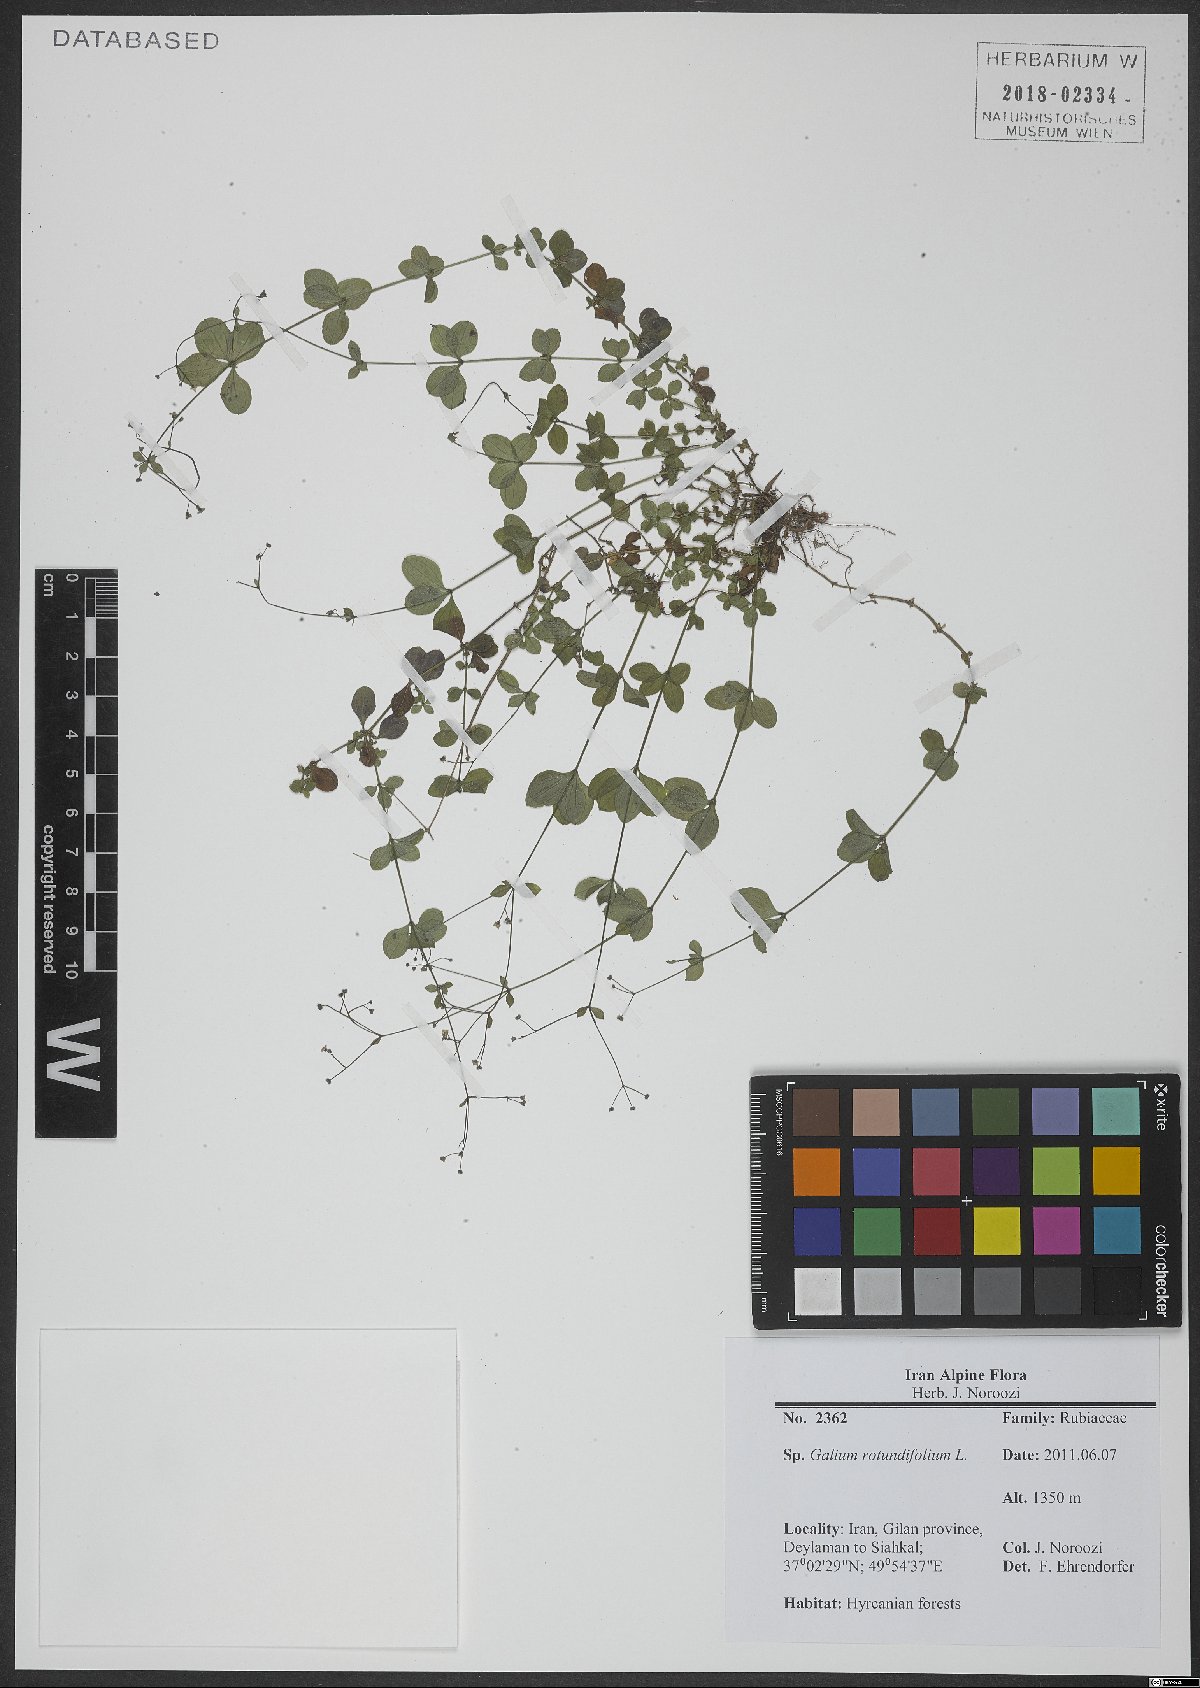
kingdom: Plantae
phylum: Tracheophyta
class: Magnoliopsida
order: Gentianales
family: Rubiaceae
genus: Galium
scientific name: Galium rotundifolium
